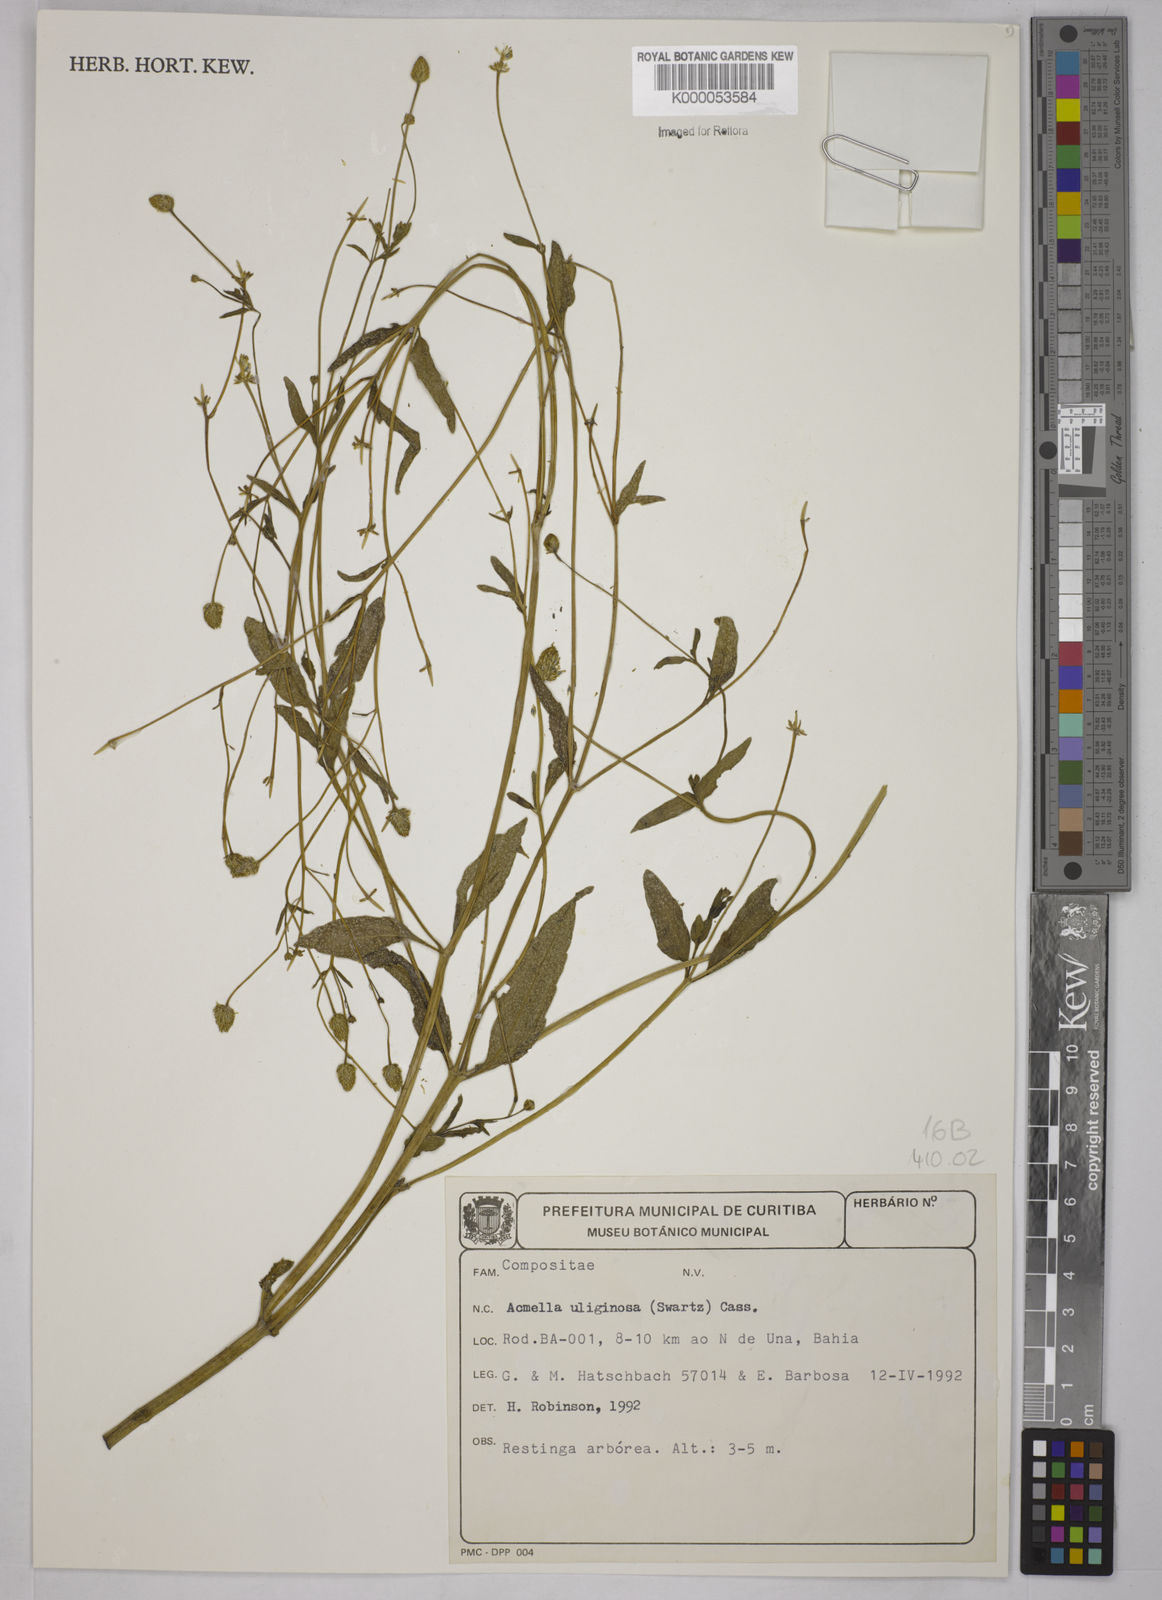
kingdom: Plantae
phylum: Tracheophyta
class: Magnoliopsida
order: Asterales
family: Asteraceae
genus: Acmella
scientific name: Acmella uliginosa
